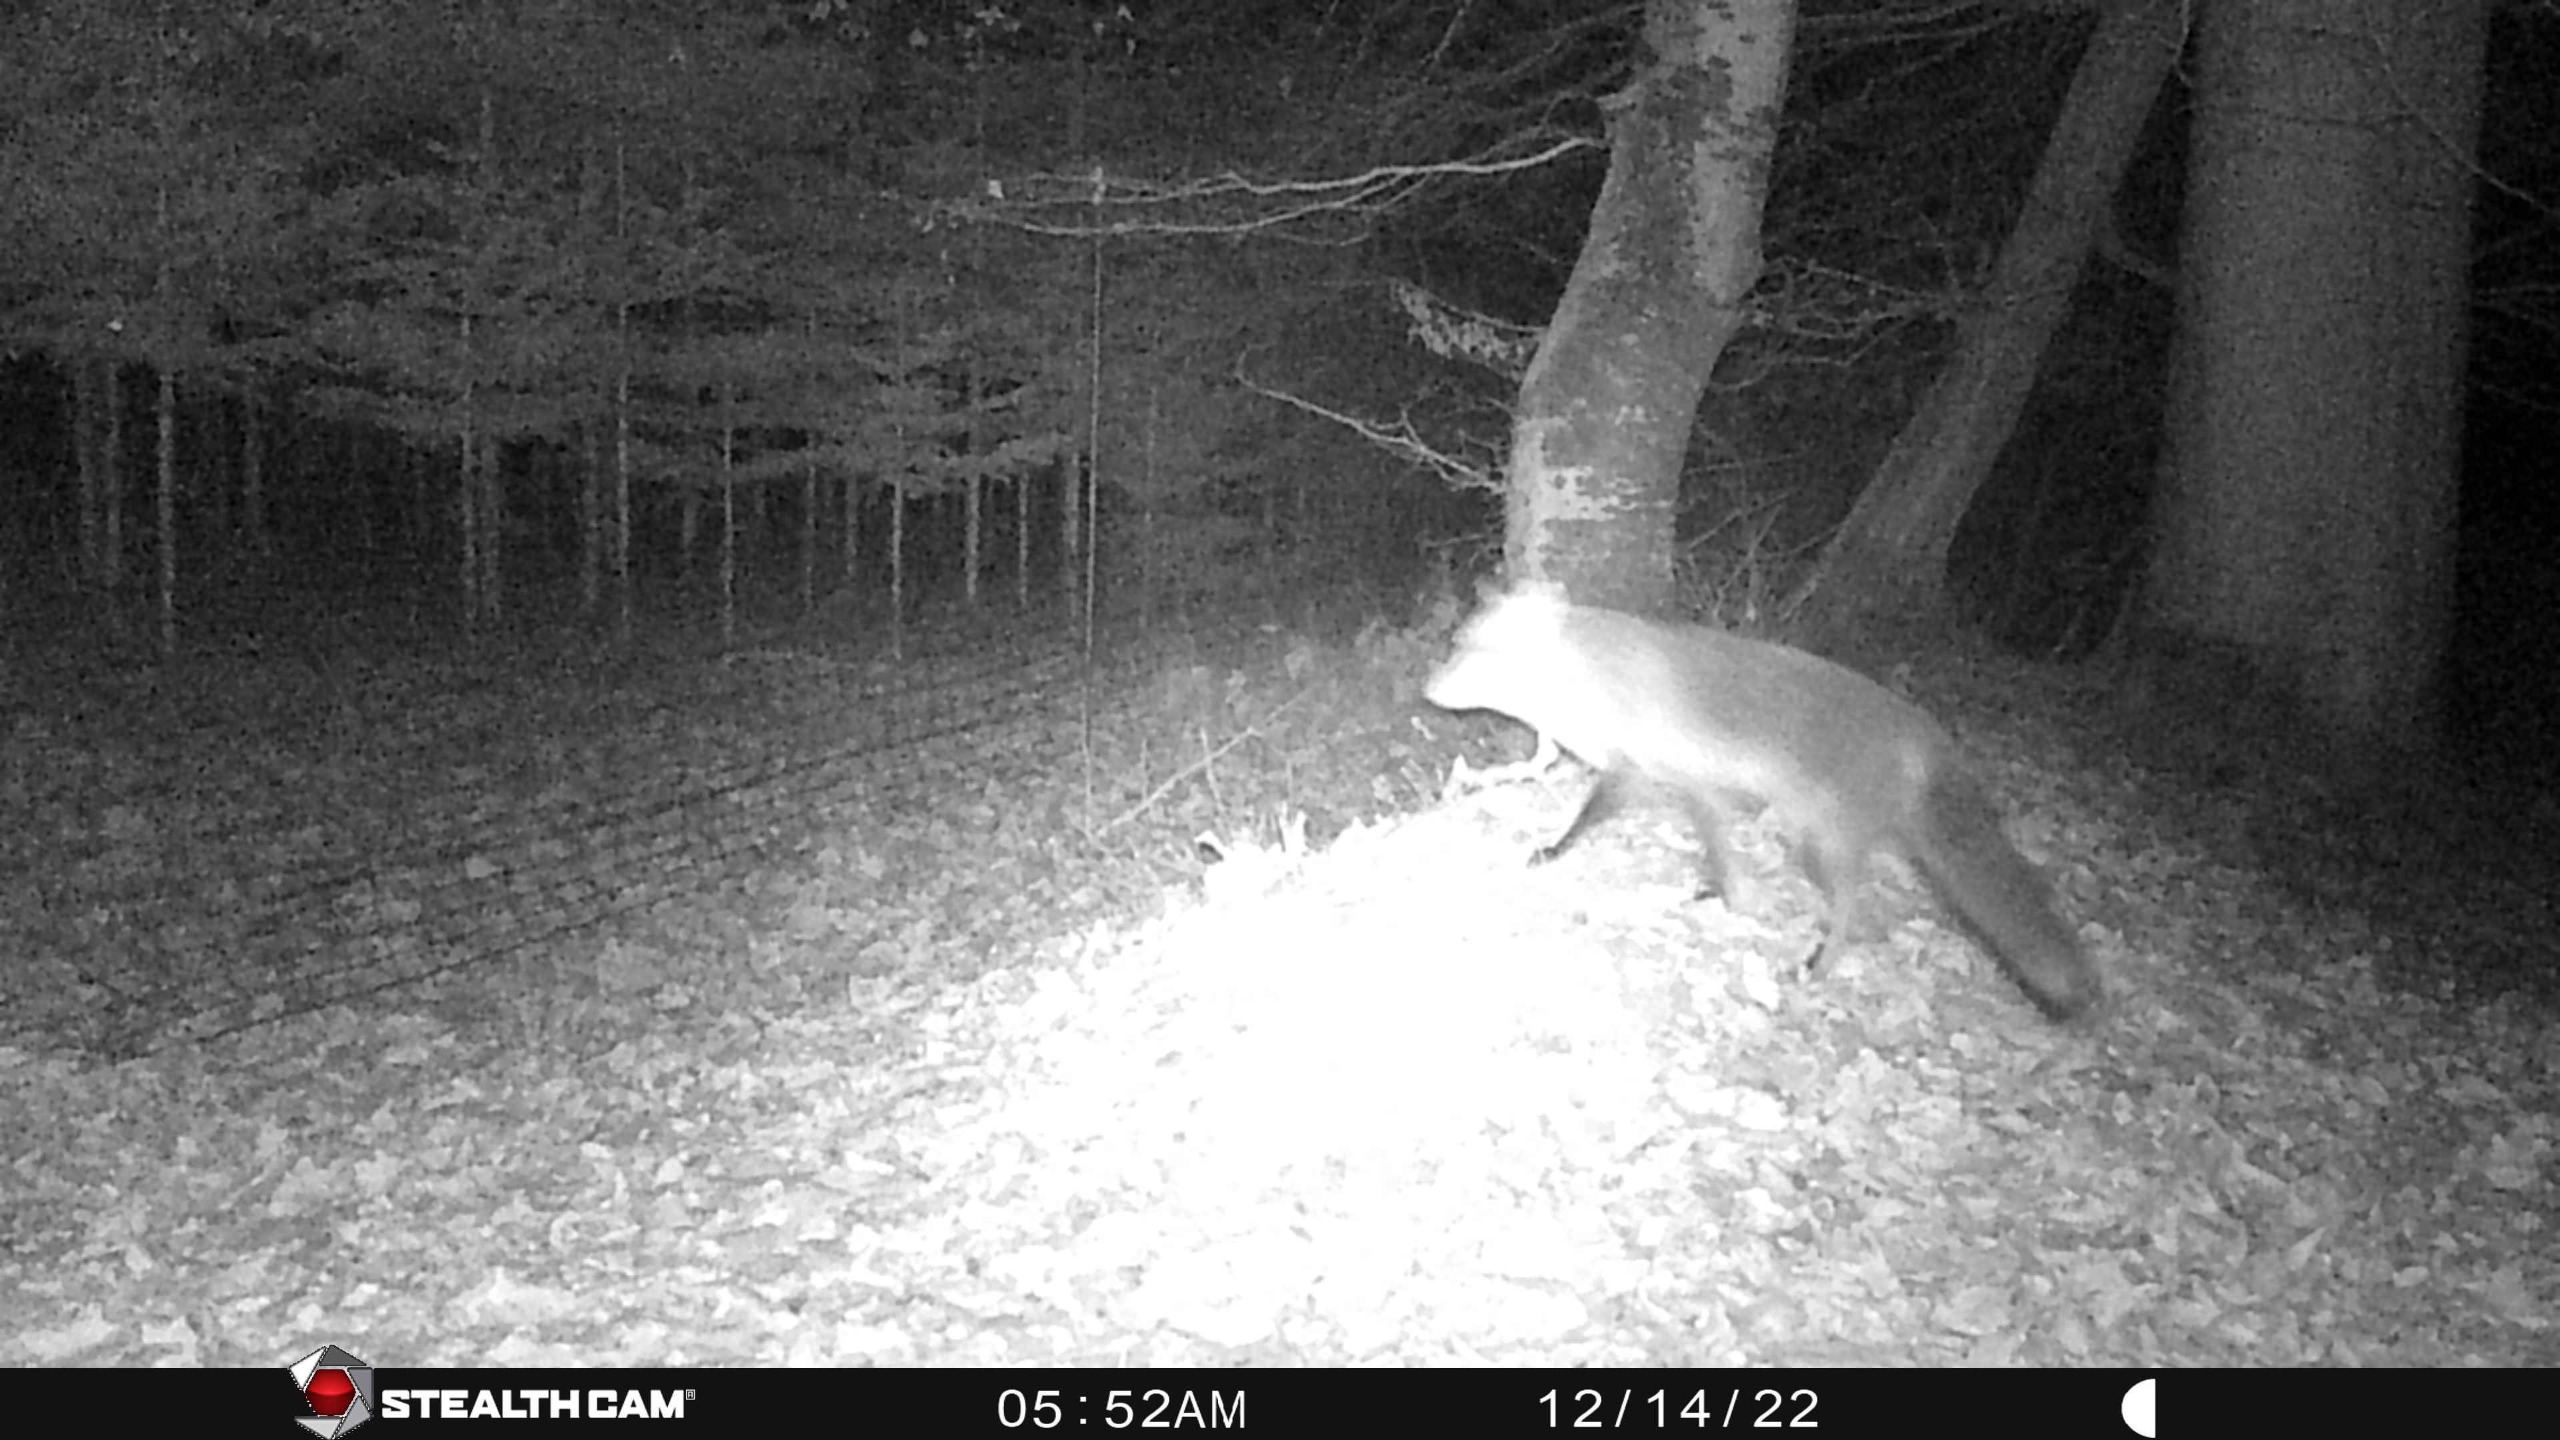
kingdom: Animalia
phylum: Chordata
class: Mammalia
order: Carnivora
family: Canidae
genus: Vulpes
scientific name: Vulpes vulpes
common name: Ræv
